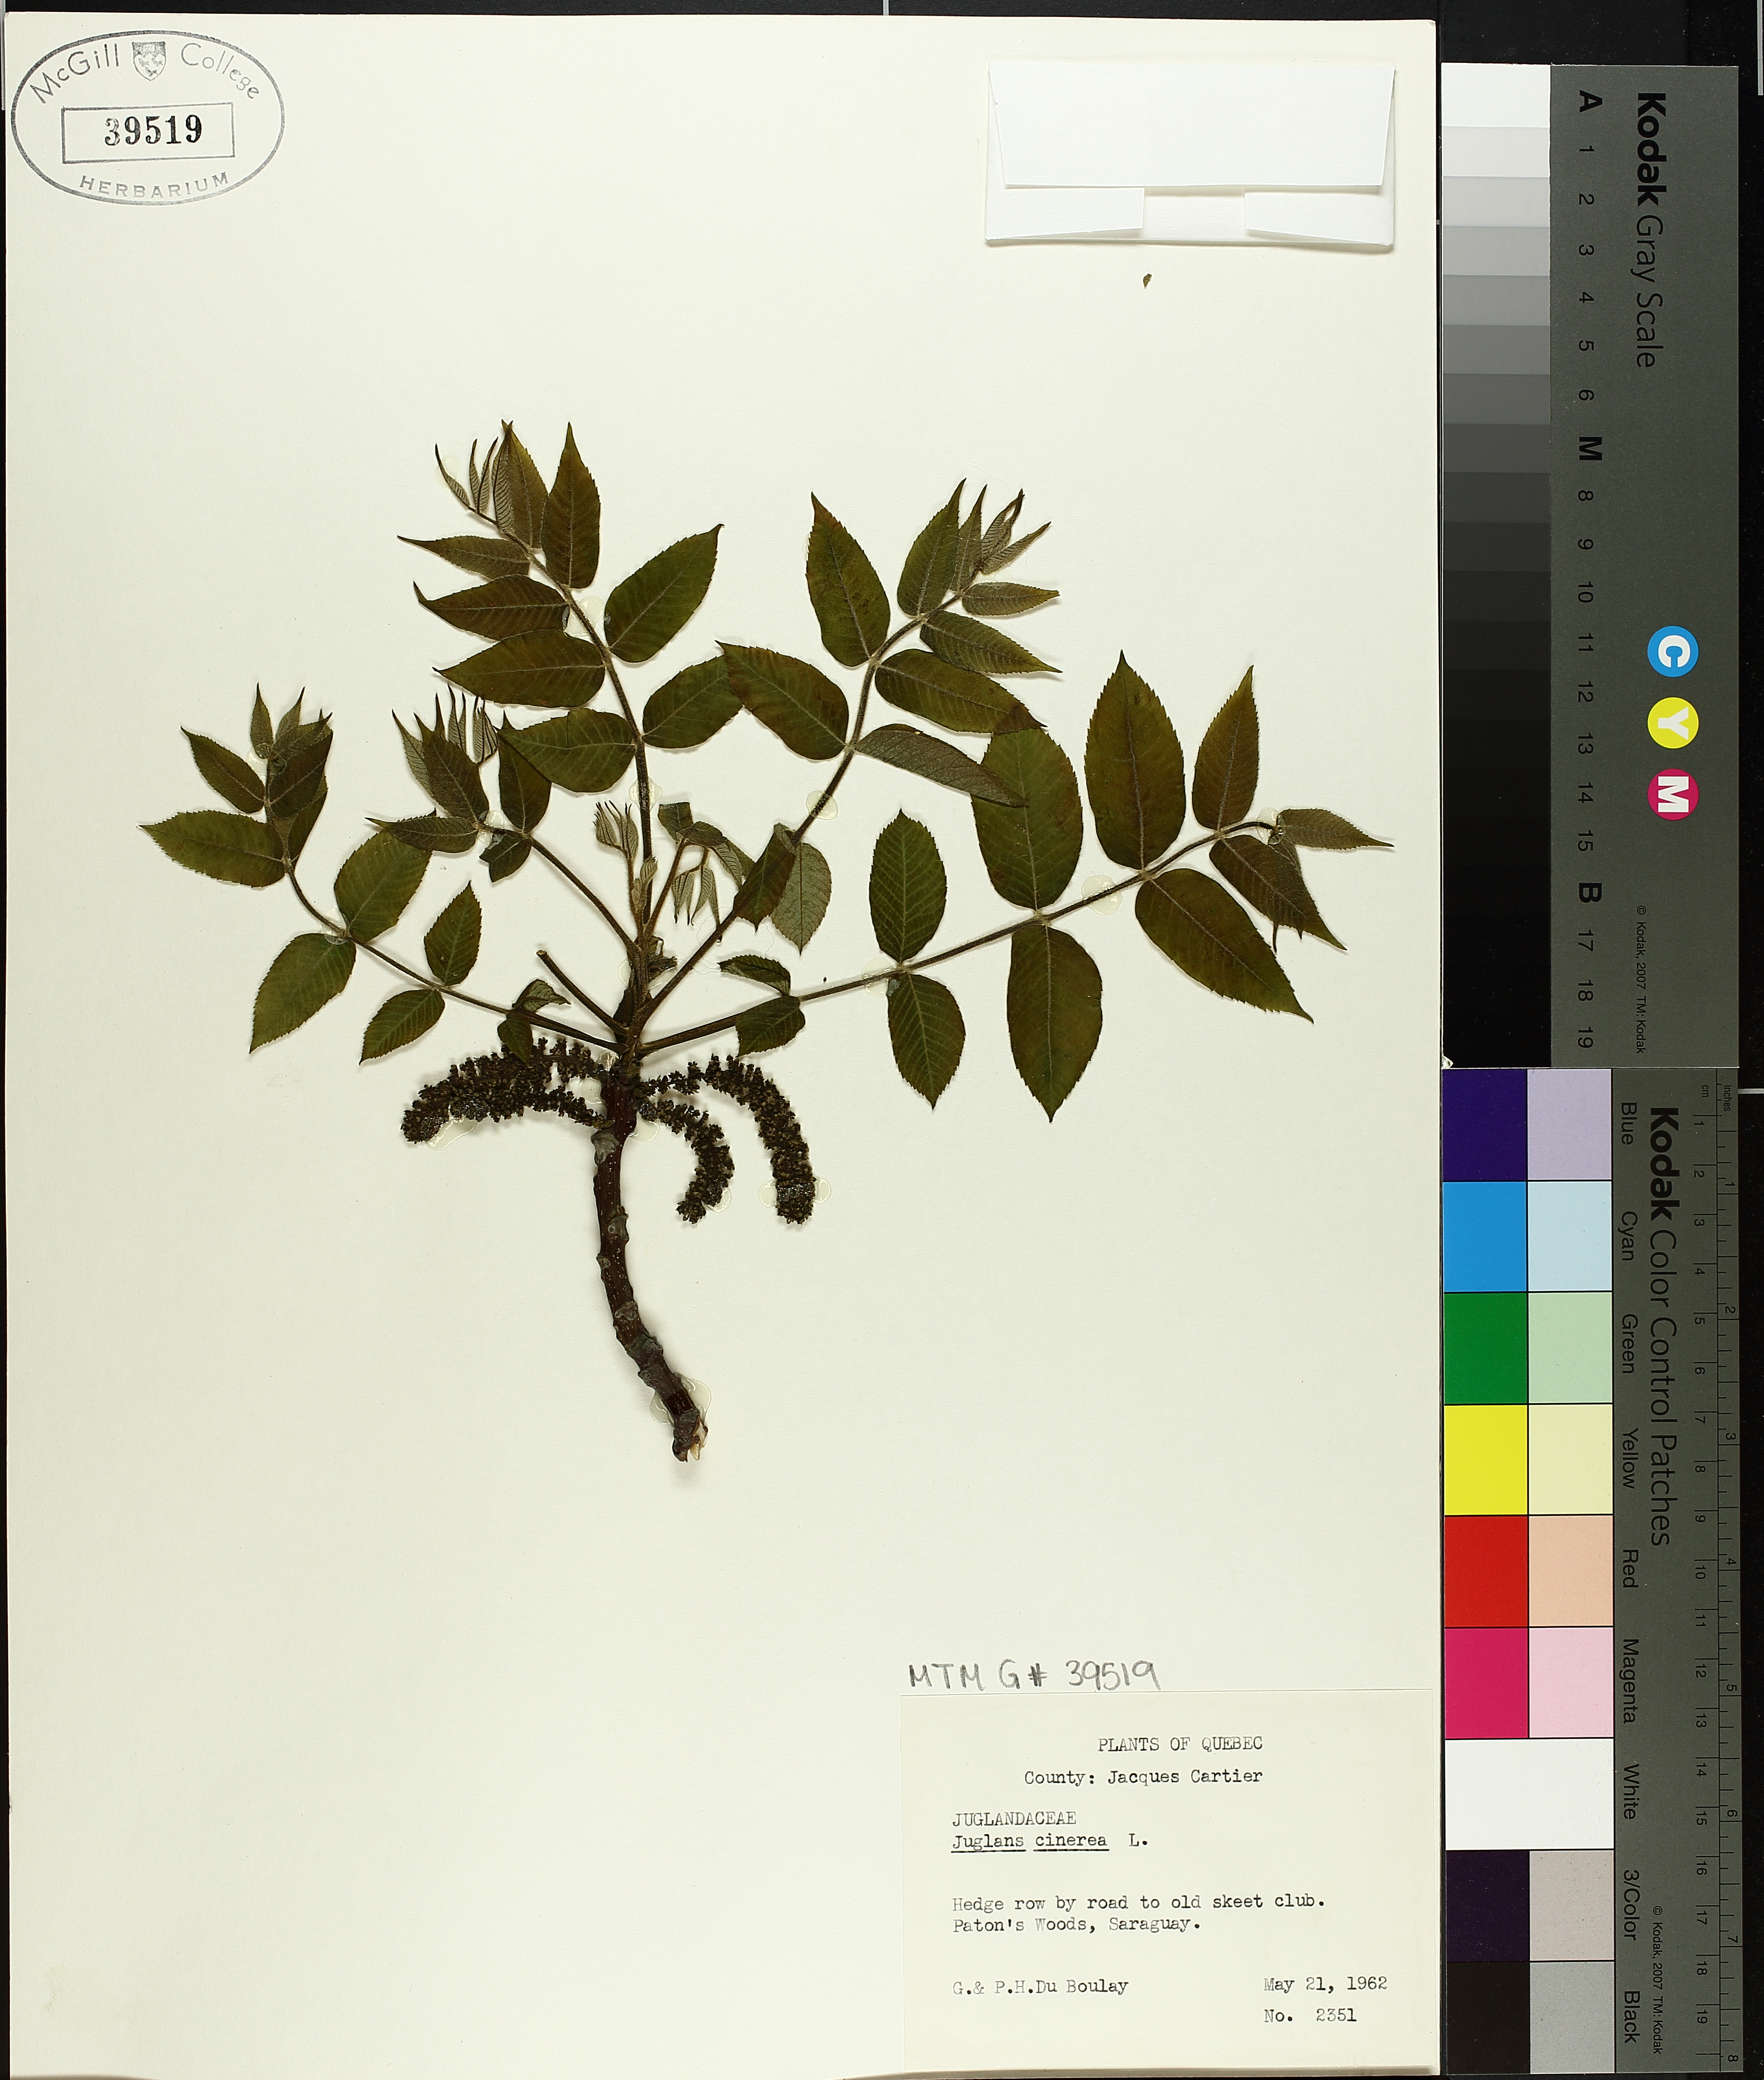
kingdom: Plantae
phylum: Tracheophyta
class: Magnoliopsida
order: Fagales
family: Juglandaceae
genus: Juglans
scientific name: Juglans cinerea
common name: Butternut
